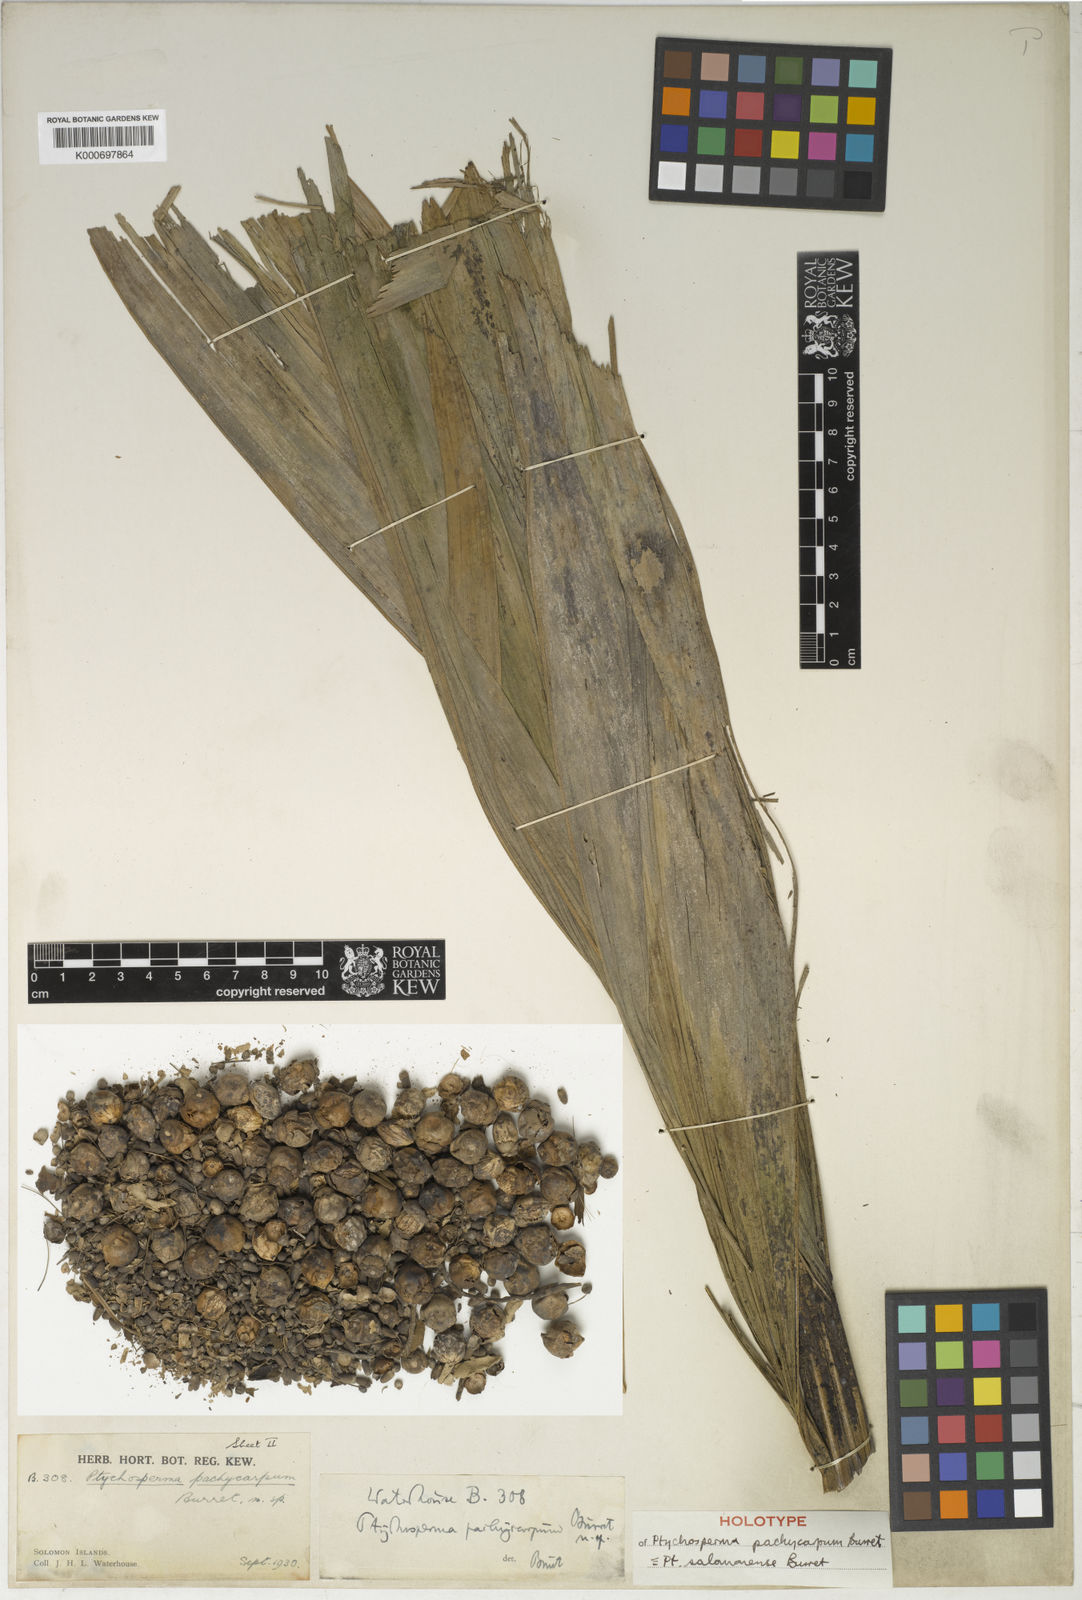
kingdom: Plantae
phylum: Tracheophyta
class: Liliopsida
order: Arecales
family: Arecaceae
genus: Ptychosperma
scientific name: Ptychosperma salomonense
